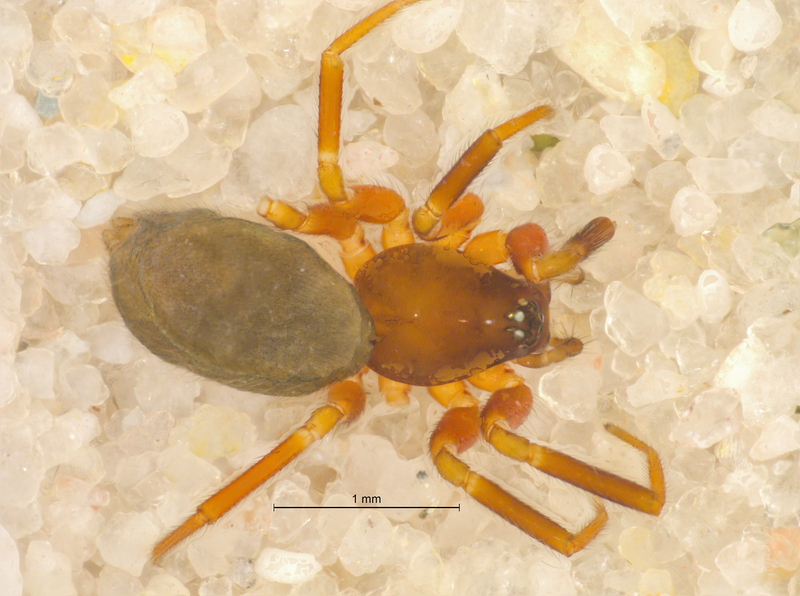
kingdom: Animalia
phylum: Arthropoda
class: Arachnida
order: Araneae
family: Linyphiidae
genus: Walckenaeria
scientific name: Walckenaeria antica
